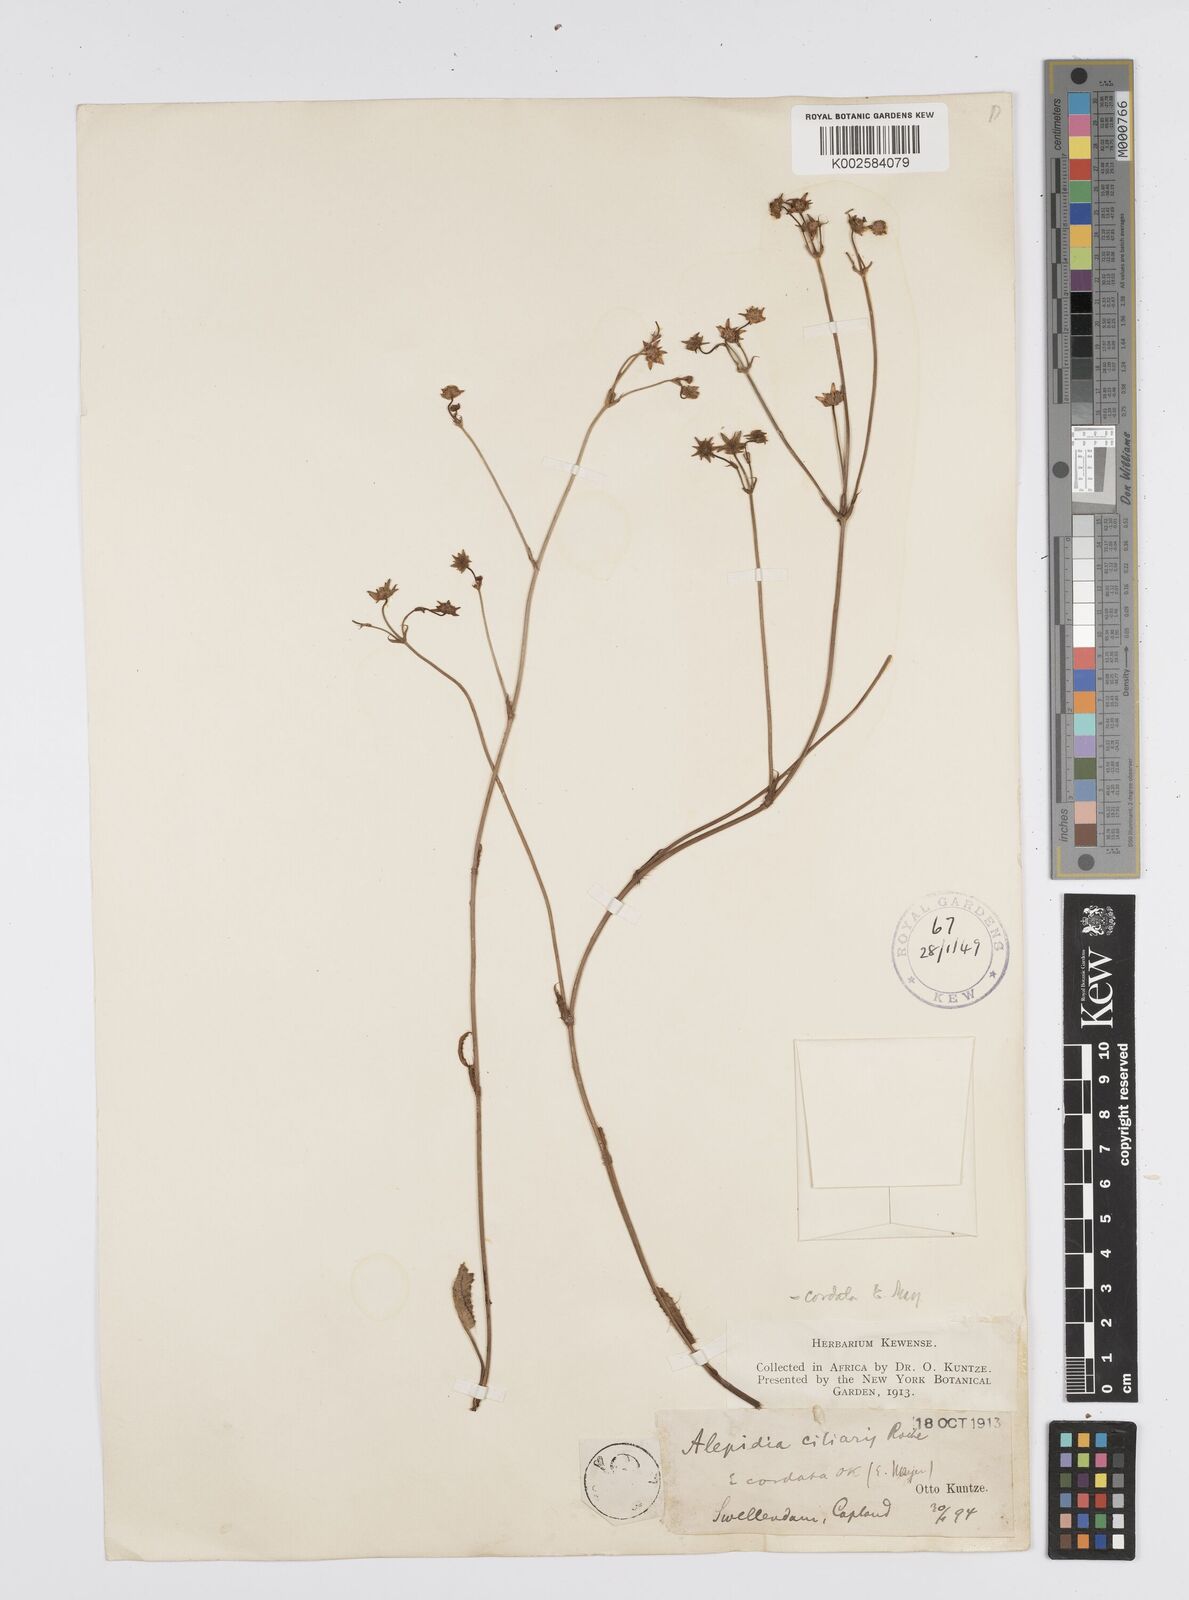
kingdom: Plantae
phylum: Tracheophyta
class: Magnoliopsida
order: Apiales
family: Apiaceae
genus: Alepidea
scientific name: Alepidea capensis
